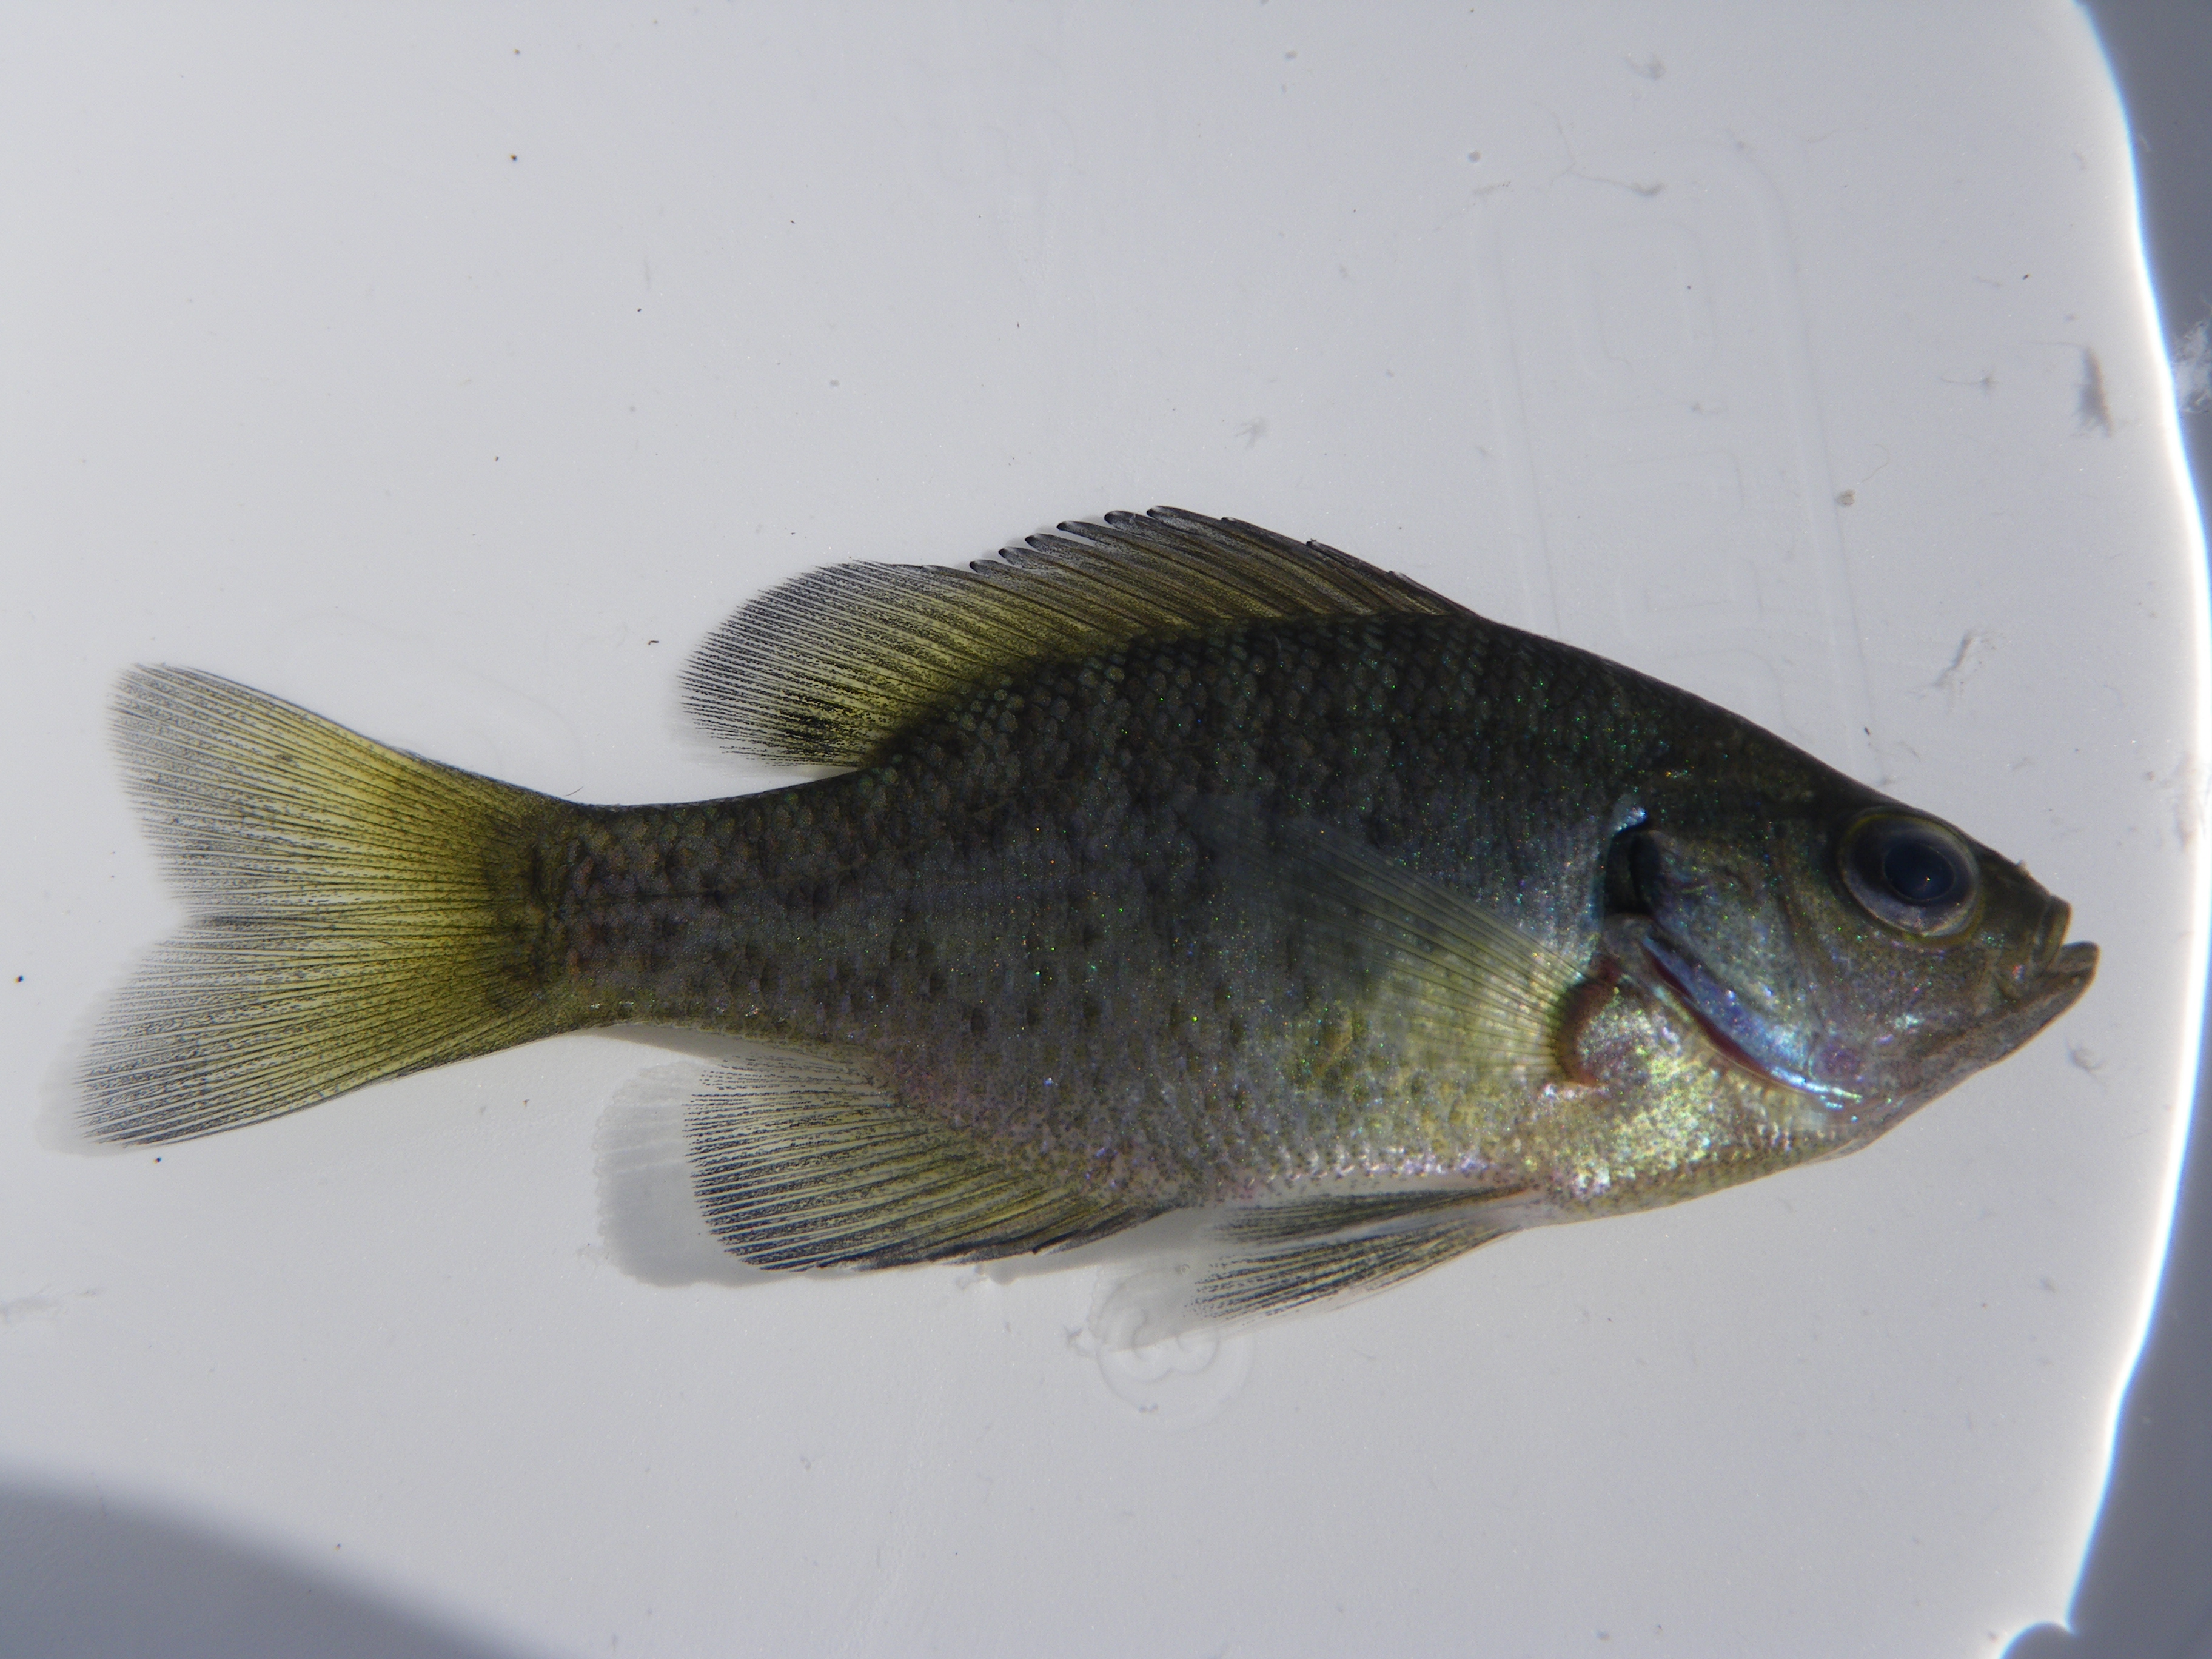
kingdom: Animalia
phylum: Chordata
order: Perciformes
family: Centrarchidae
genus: Lepomis
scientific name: Lepomis macrochirus
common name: Bluegill
